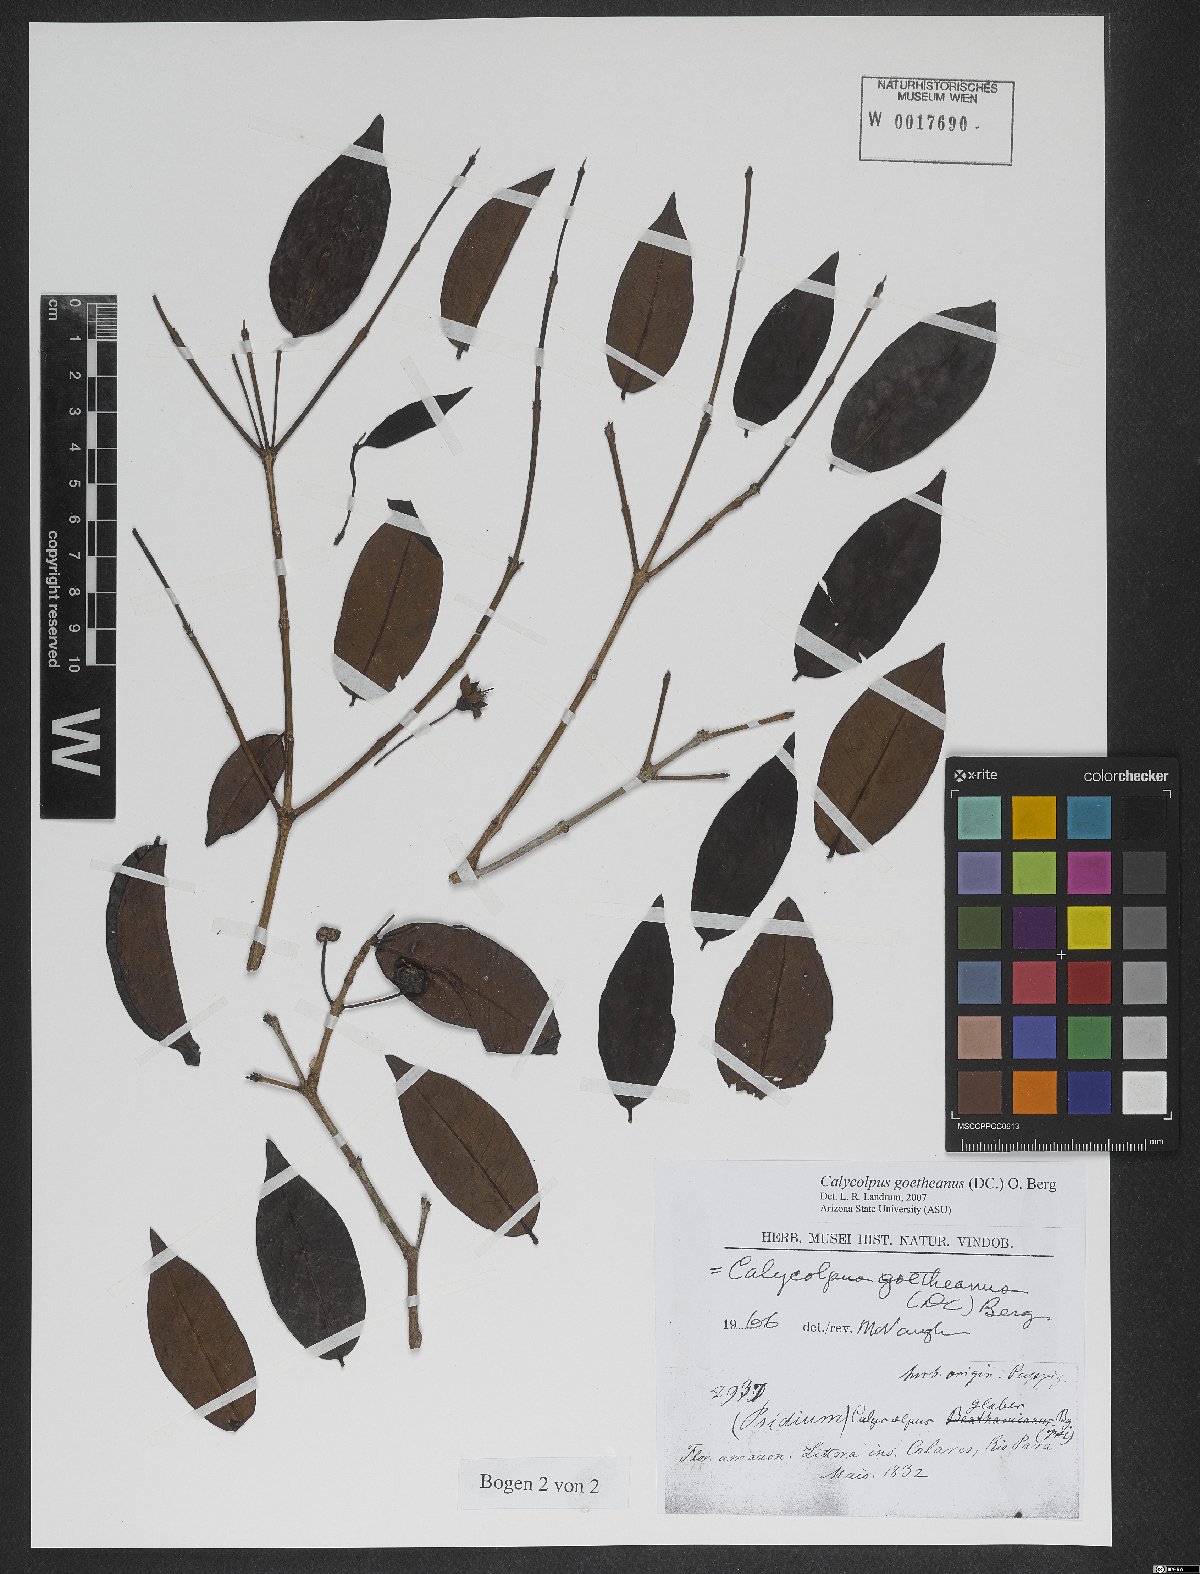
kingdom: Plantae
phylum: Tracheophyta
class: Magnoliopsida
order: Myrtales
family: Myrtaceae
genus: Calycolpus
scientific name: Calycolpus goetheanus
